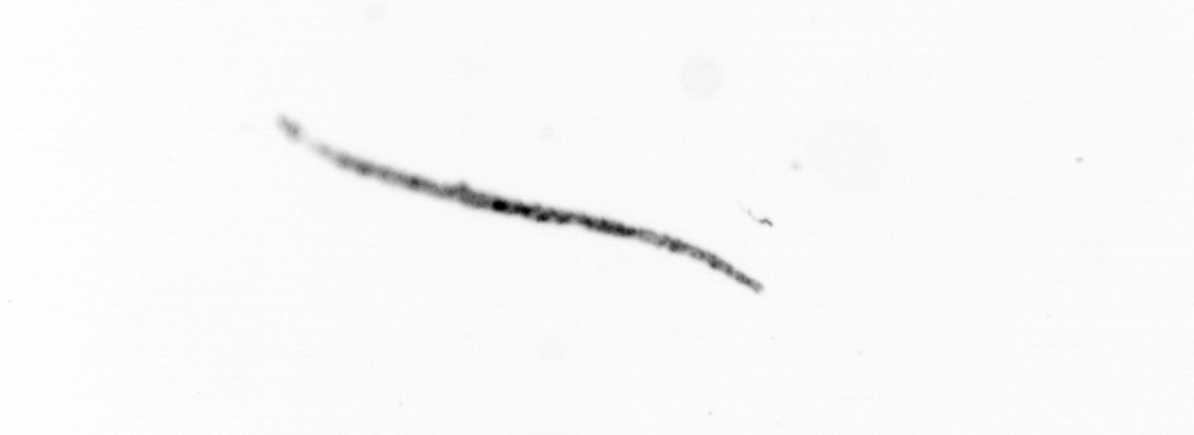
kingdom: Chromista
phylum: Ochrophyta
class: Bacillariophyceae
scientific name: Bacillariophyceae
